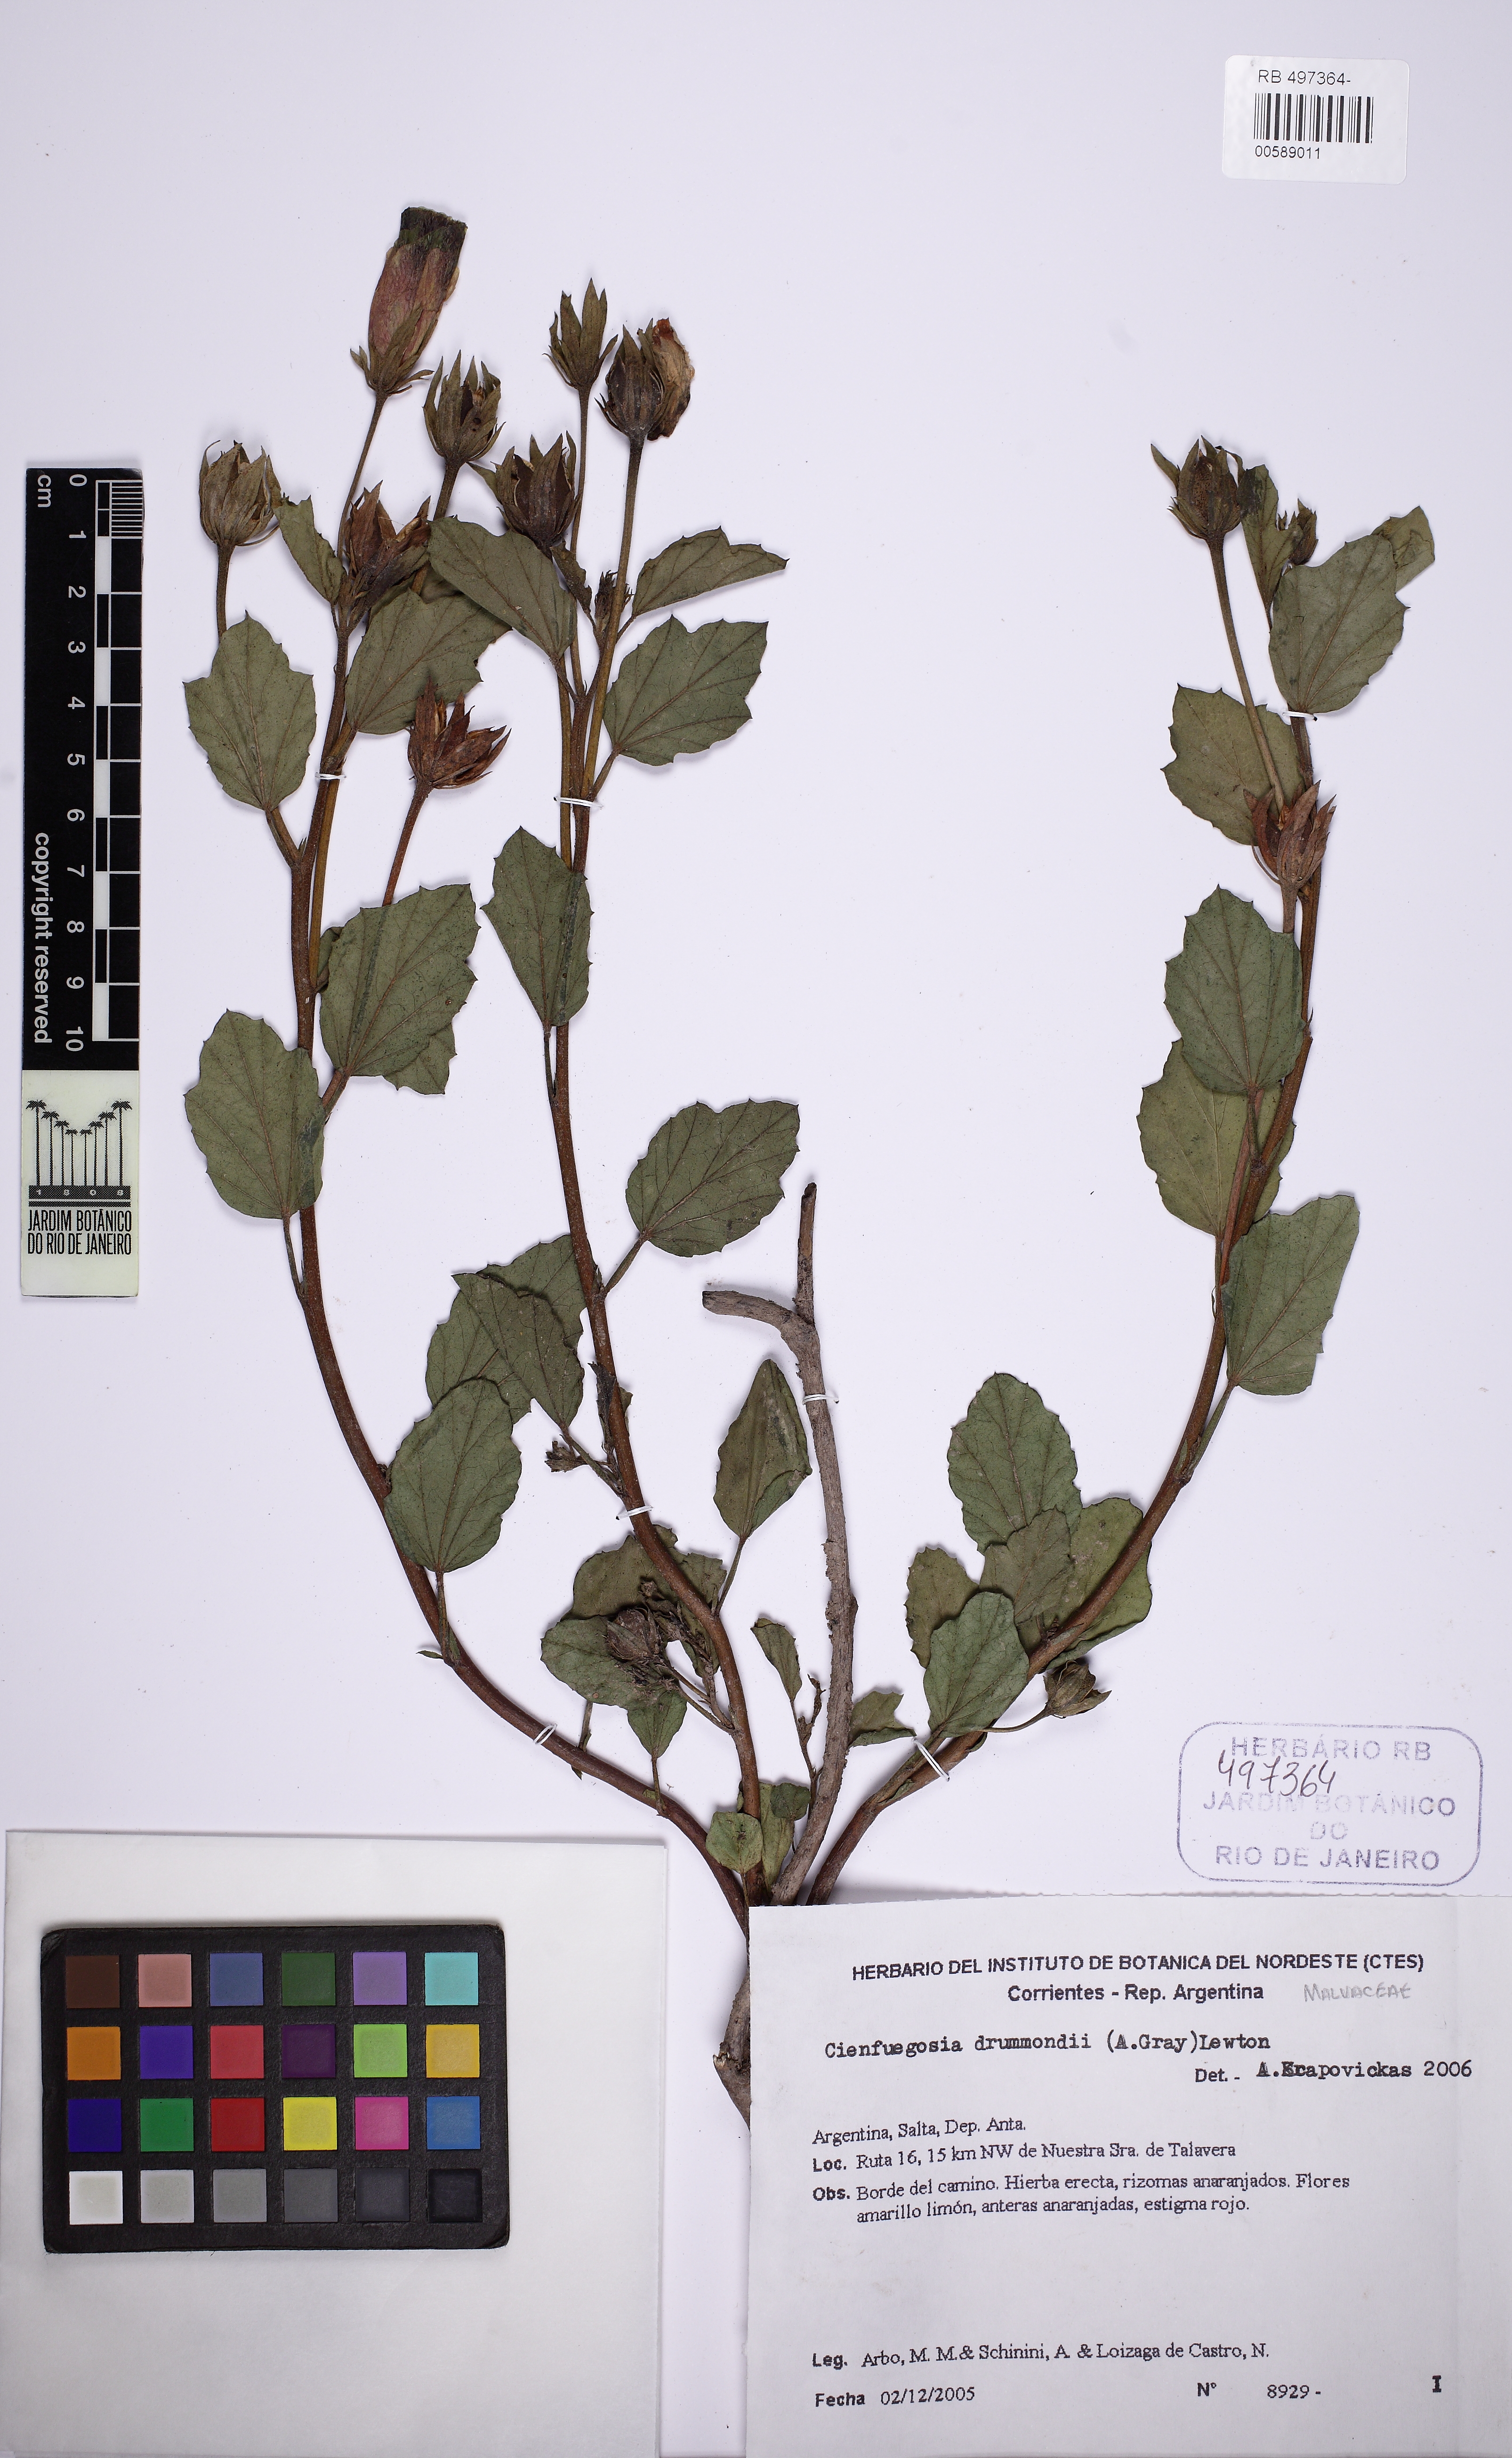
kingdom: Plantae
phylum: Tracheophyta
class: Magnoliopsida
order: Malvales
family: Malvaceae
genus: Cienfuegosia
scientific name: Cienfuegosia drummondii
